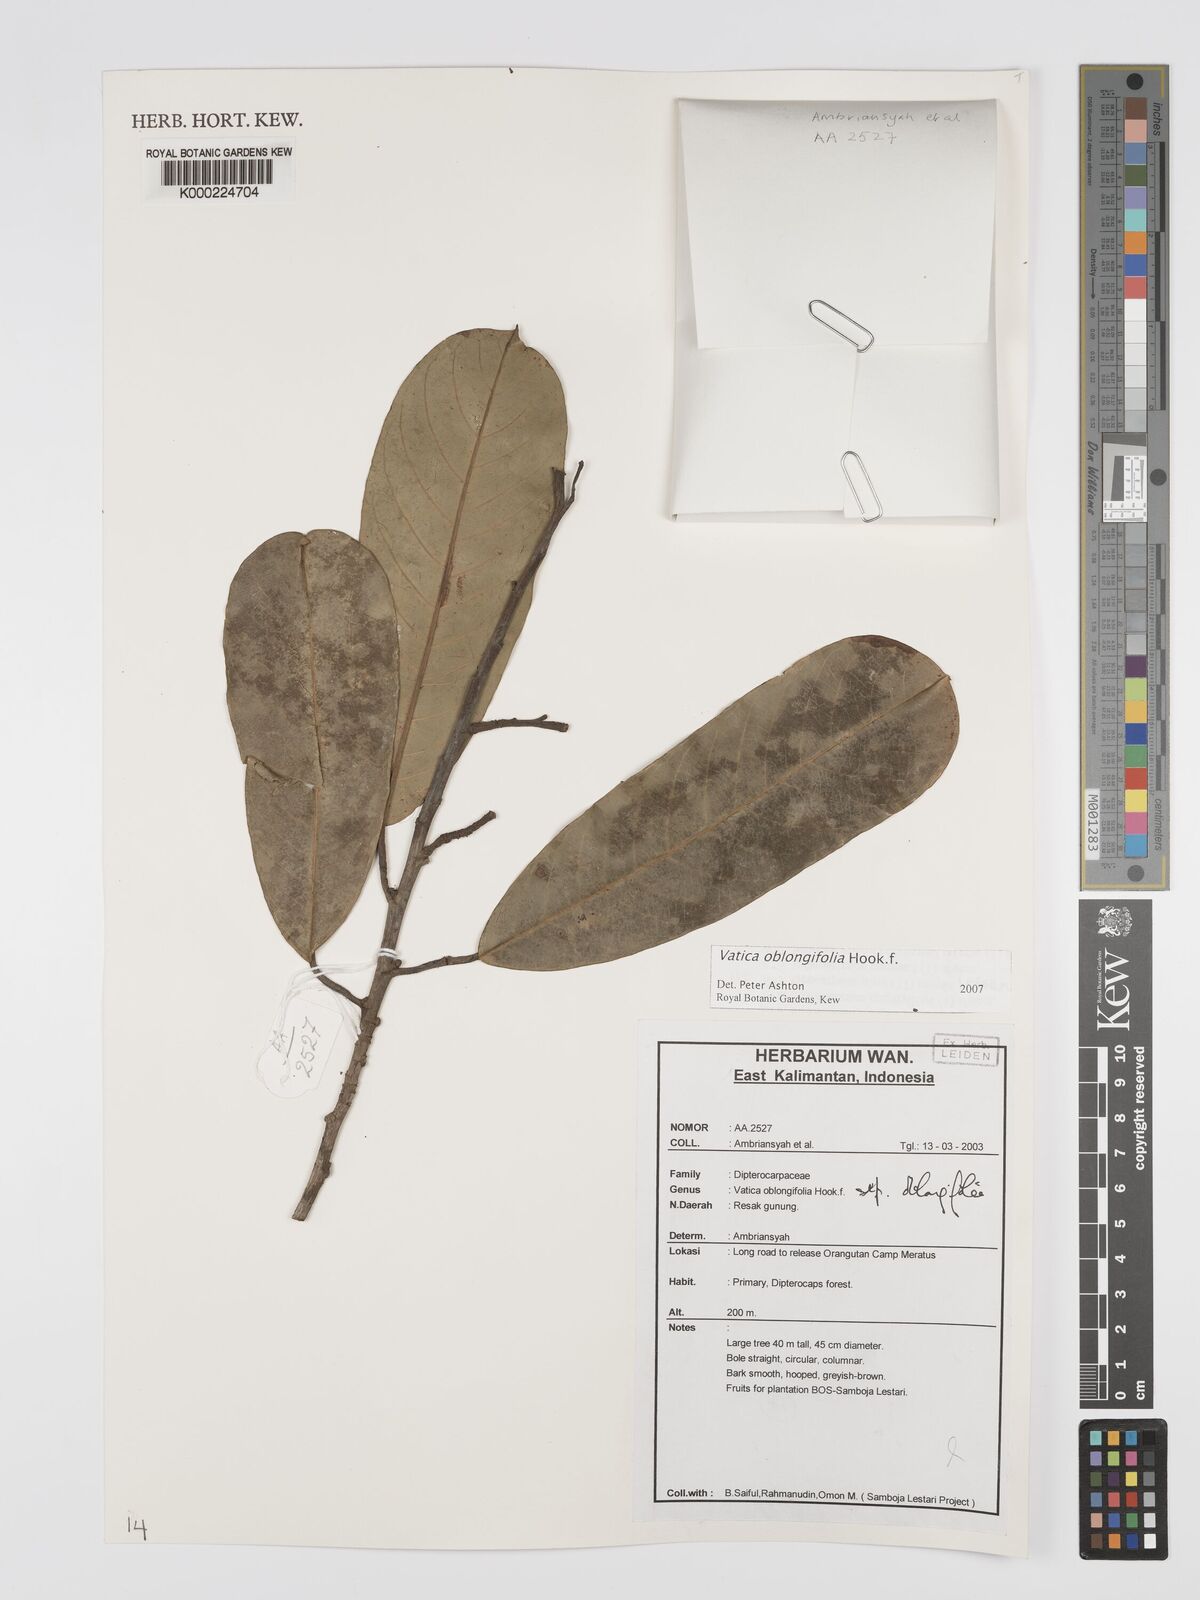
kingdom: Plantae
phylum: Tracheophyta
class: Magnoliopsida
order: Malvales
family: Dipterocarpaceae
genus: Vatica
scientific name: Vatica oblongifolia
